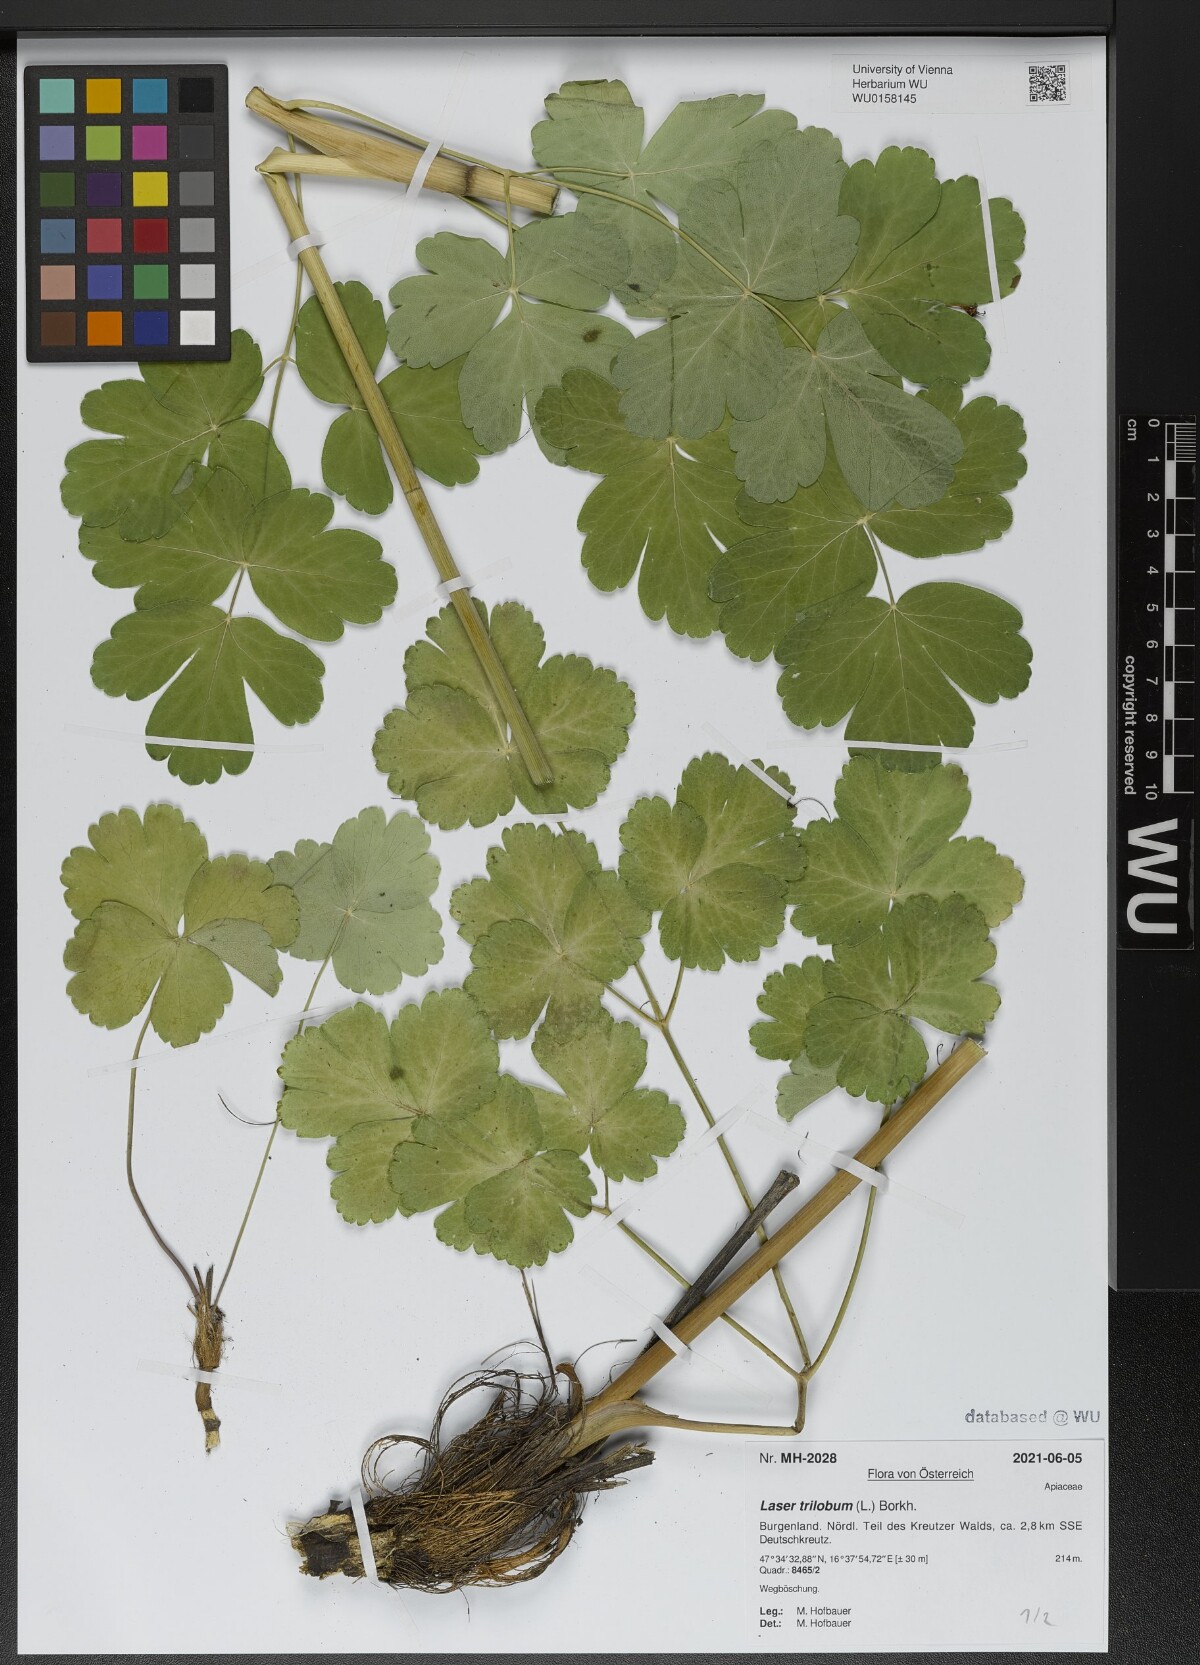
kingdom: Plantae
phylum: Tracheophyta
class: Magnoliopsida
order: Apiales
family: Apiaceae
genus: Laser
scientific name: Laser trilobum
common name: Laser
